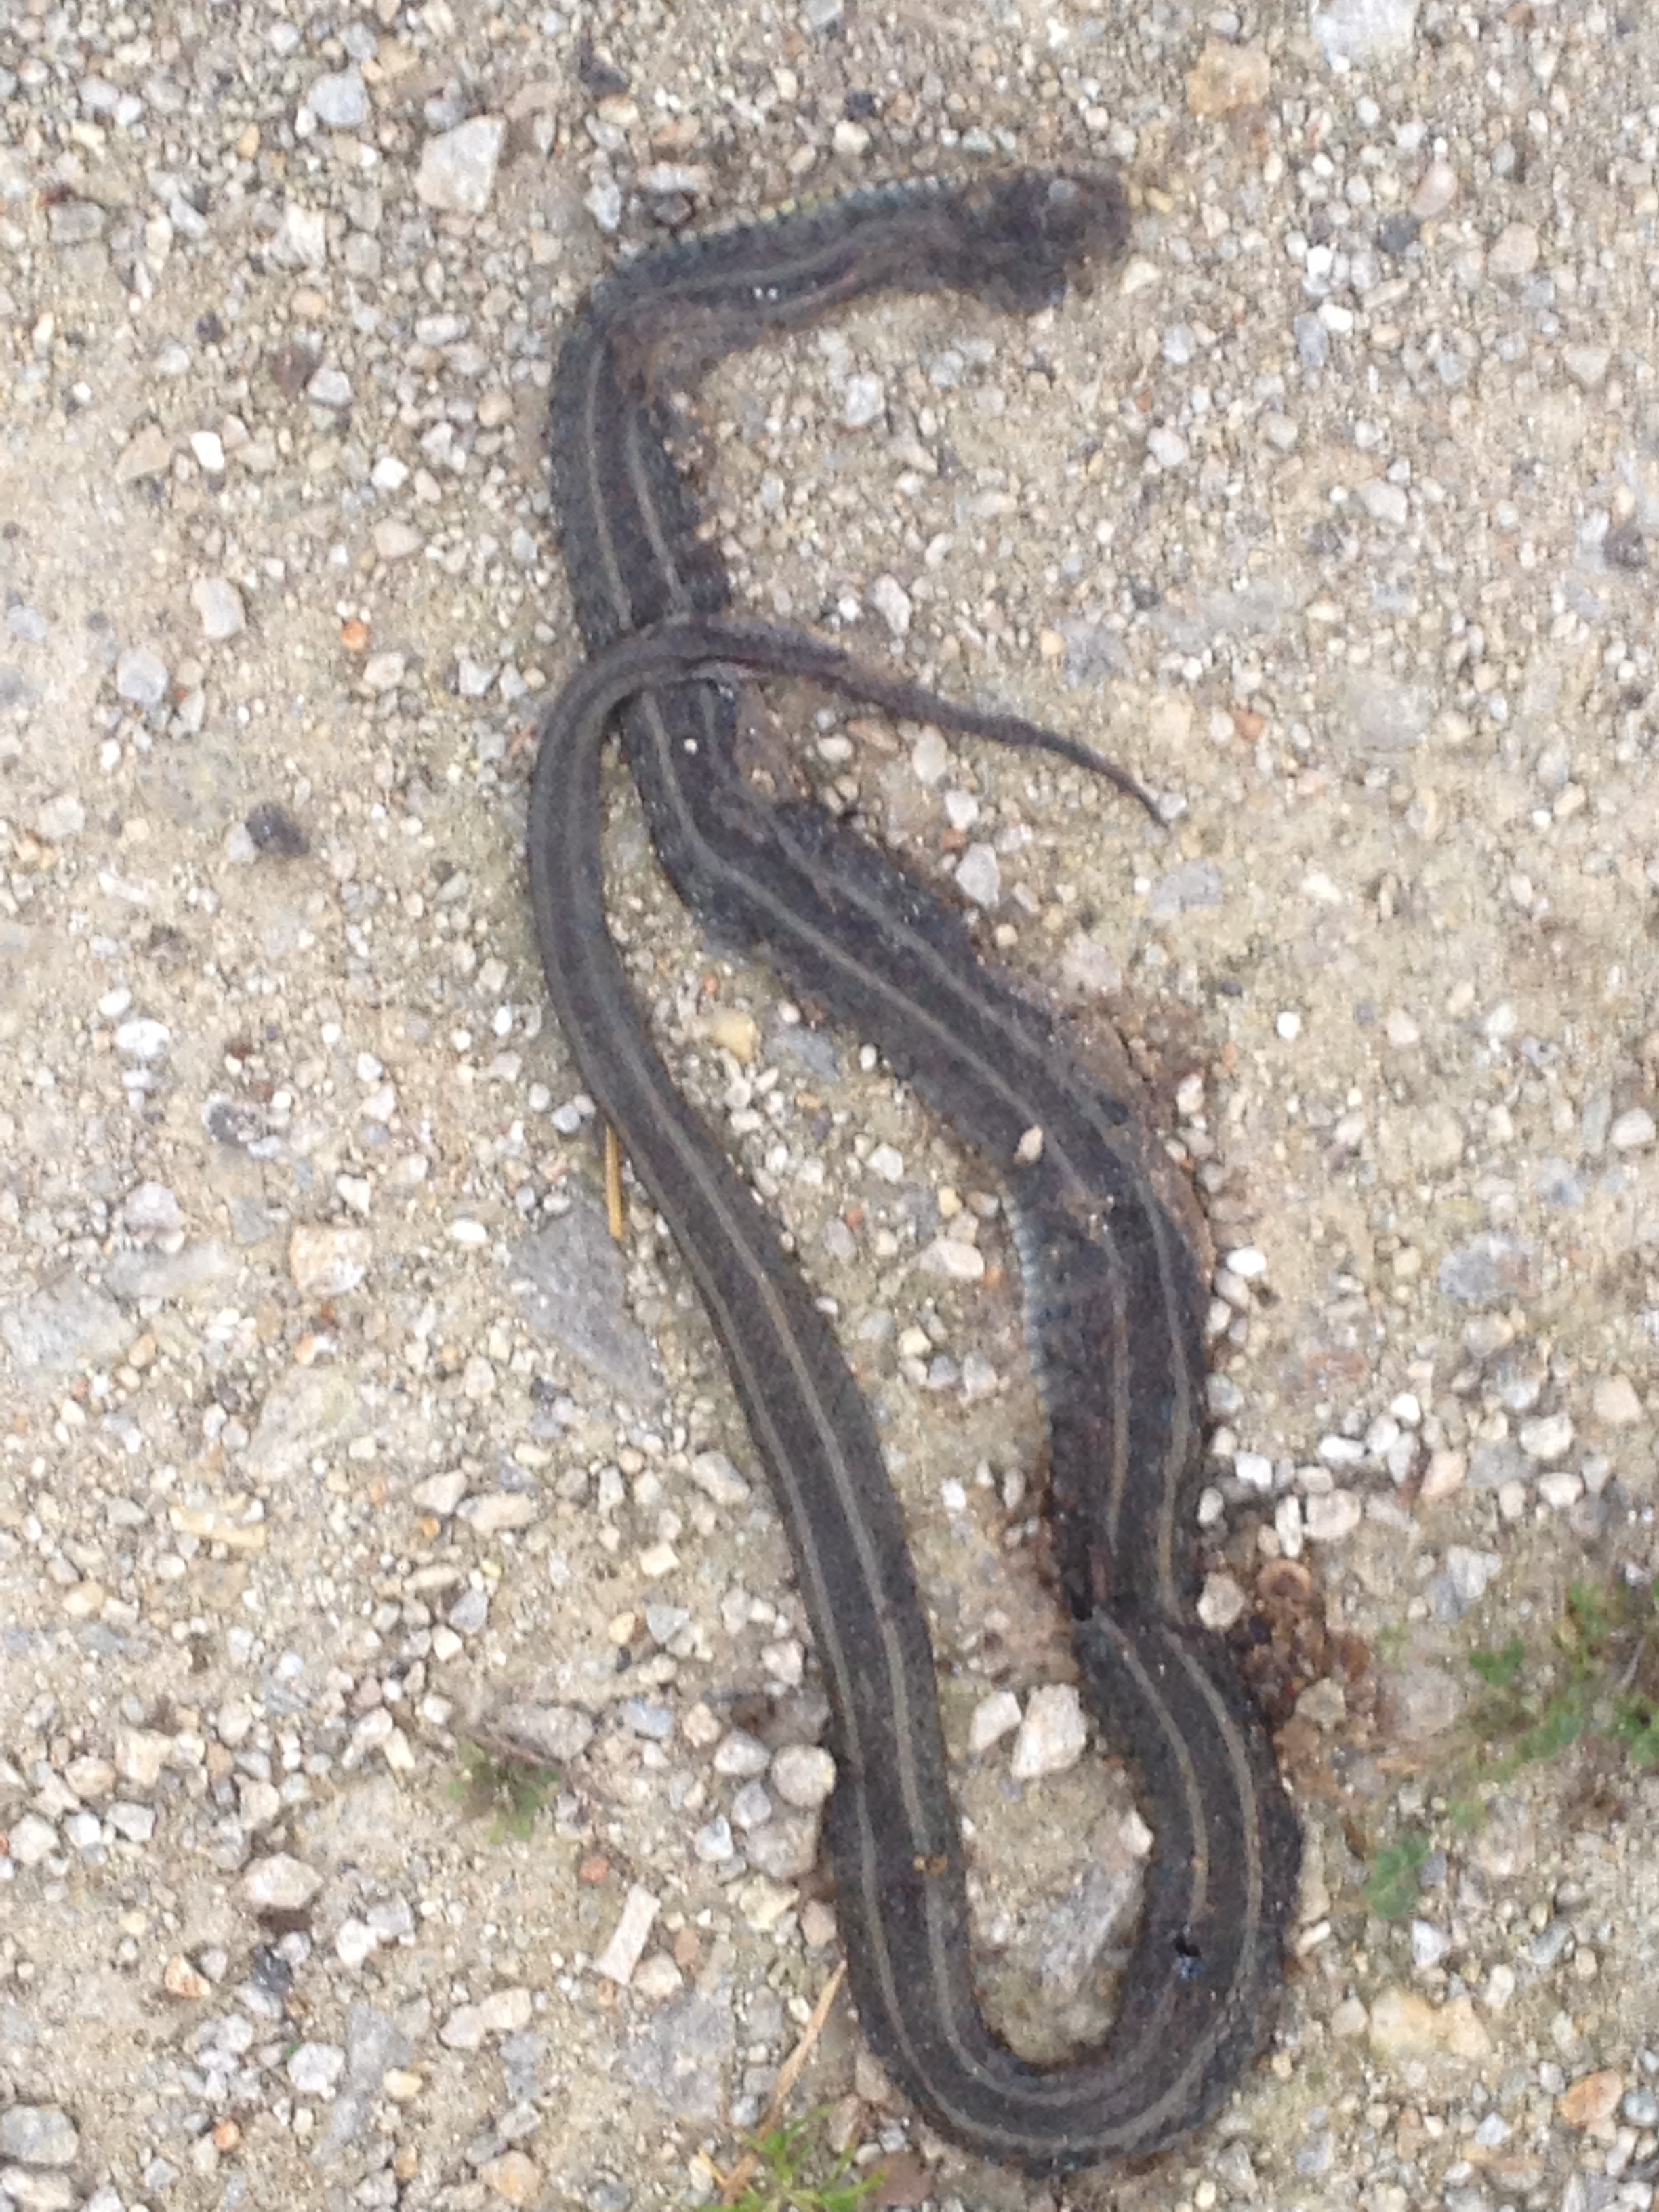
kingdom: Animalia
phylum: Chordata
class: Squamata
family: Colubridae
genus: Natrix
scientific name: Natrix natrix
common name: Grass snake
